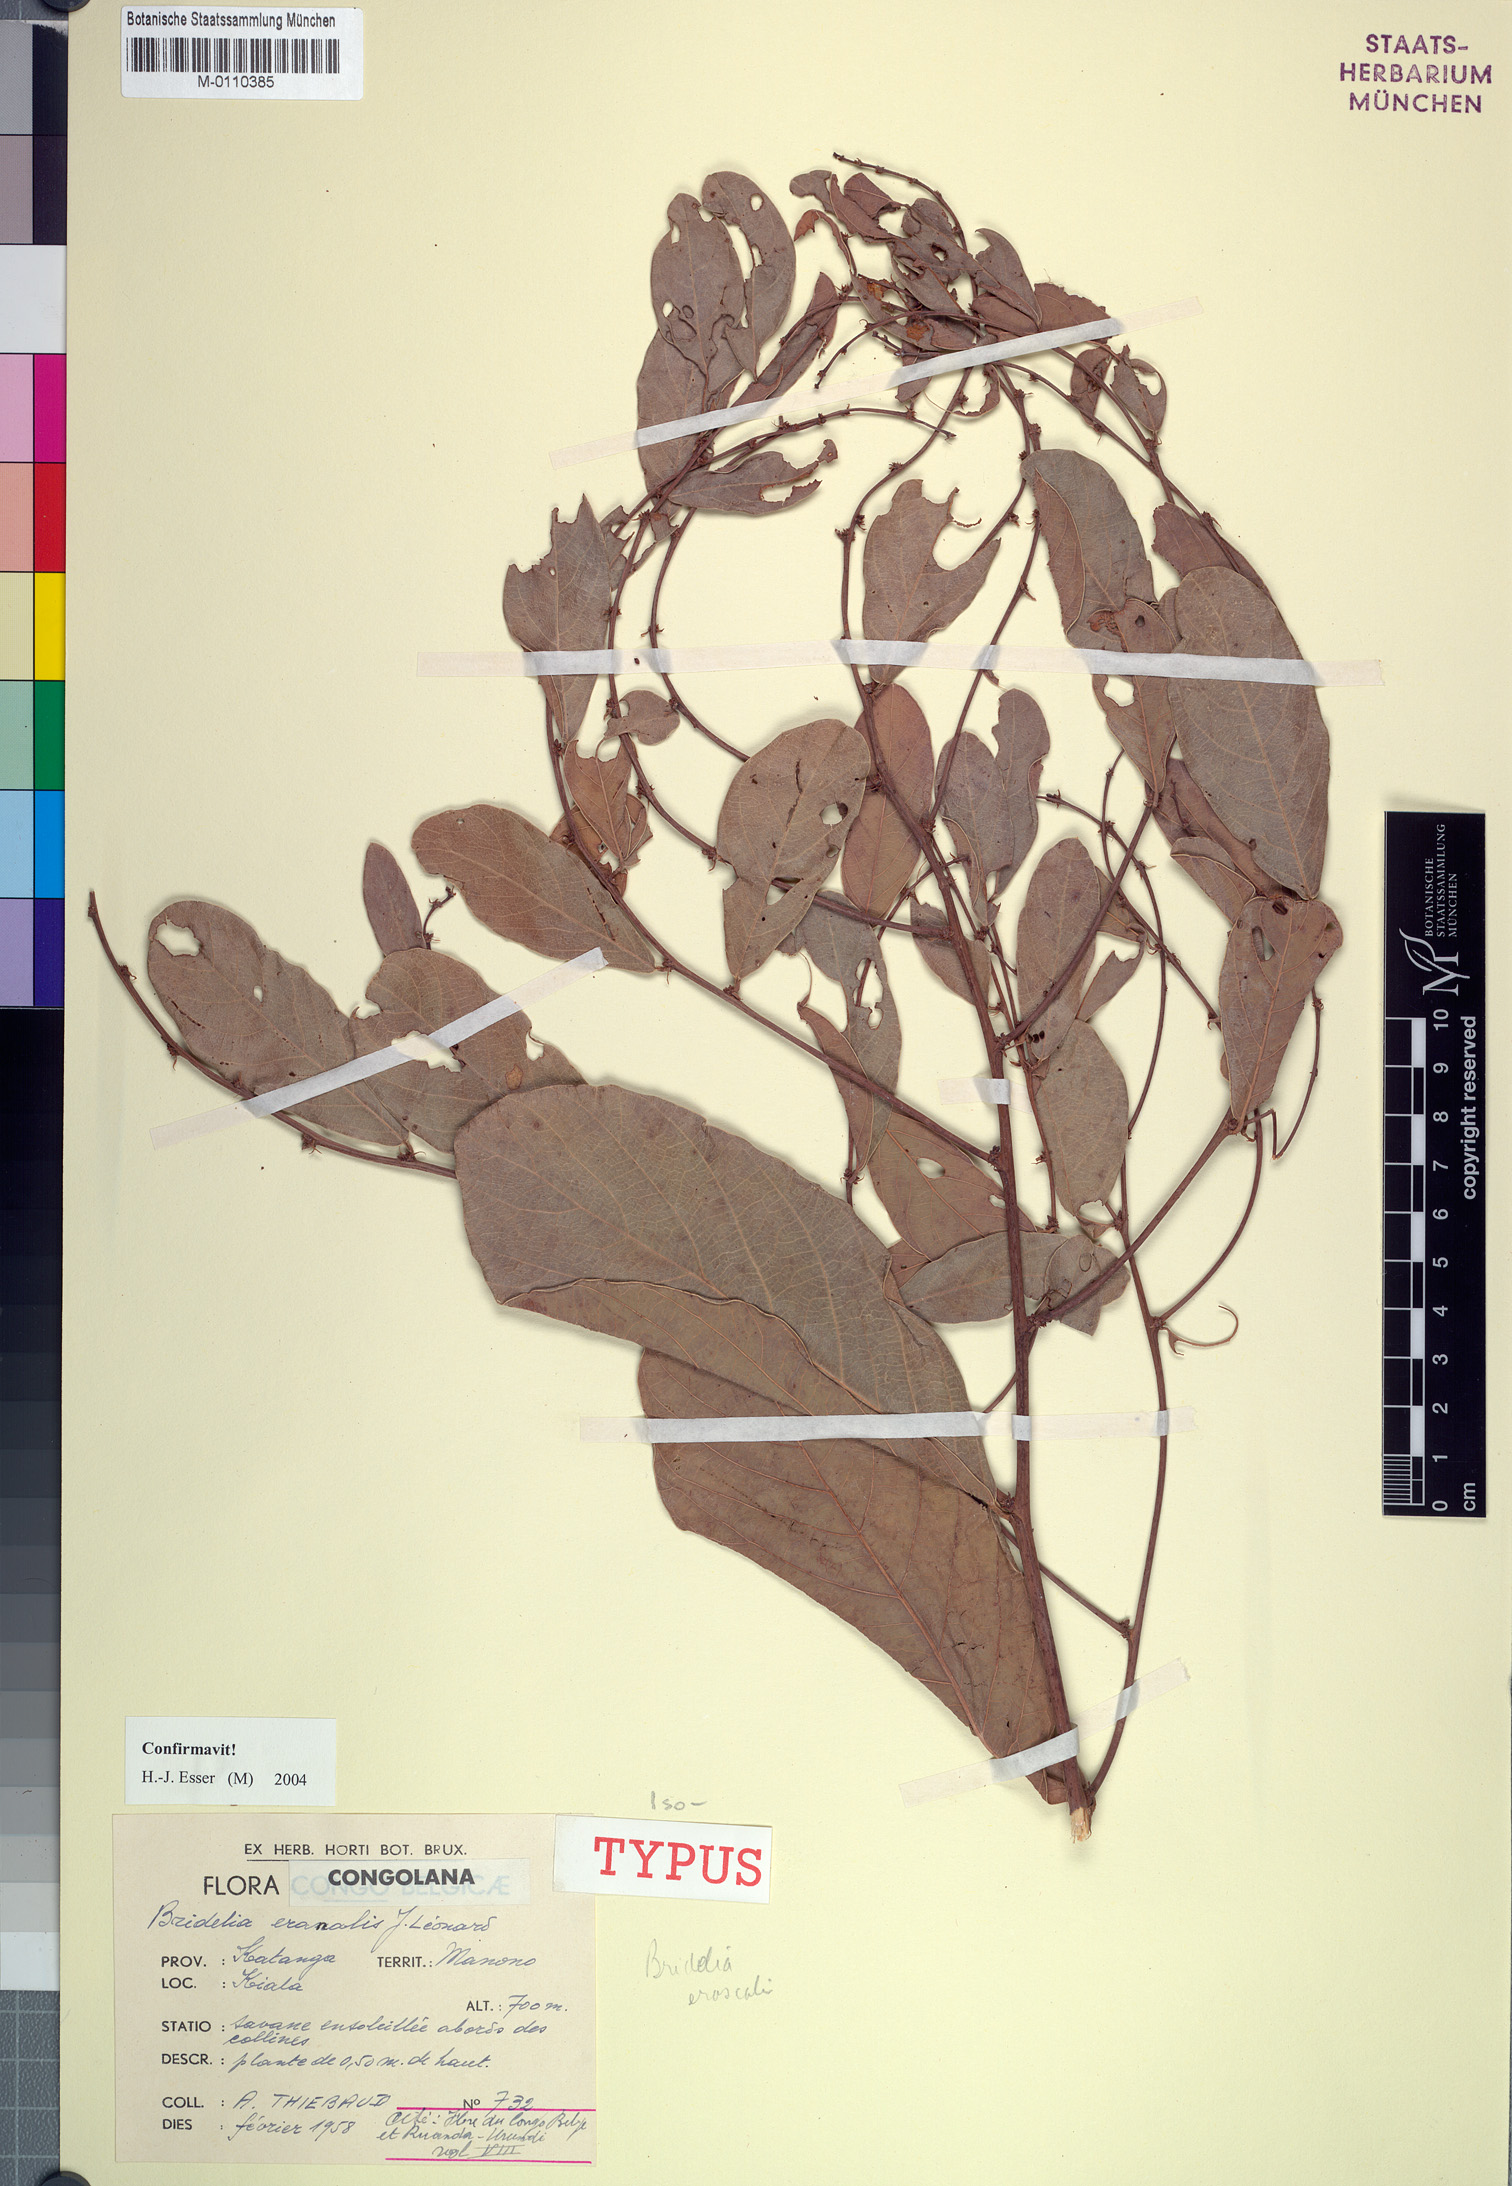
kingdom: Plantae
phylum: Tracheophyta
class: Magnoliopsida
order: Malpighiales
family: Phyllanthaceae
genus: Bridelia
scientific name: Bridelia eranalis
